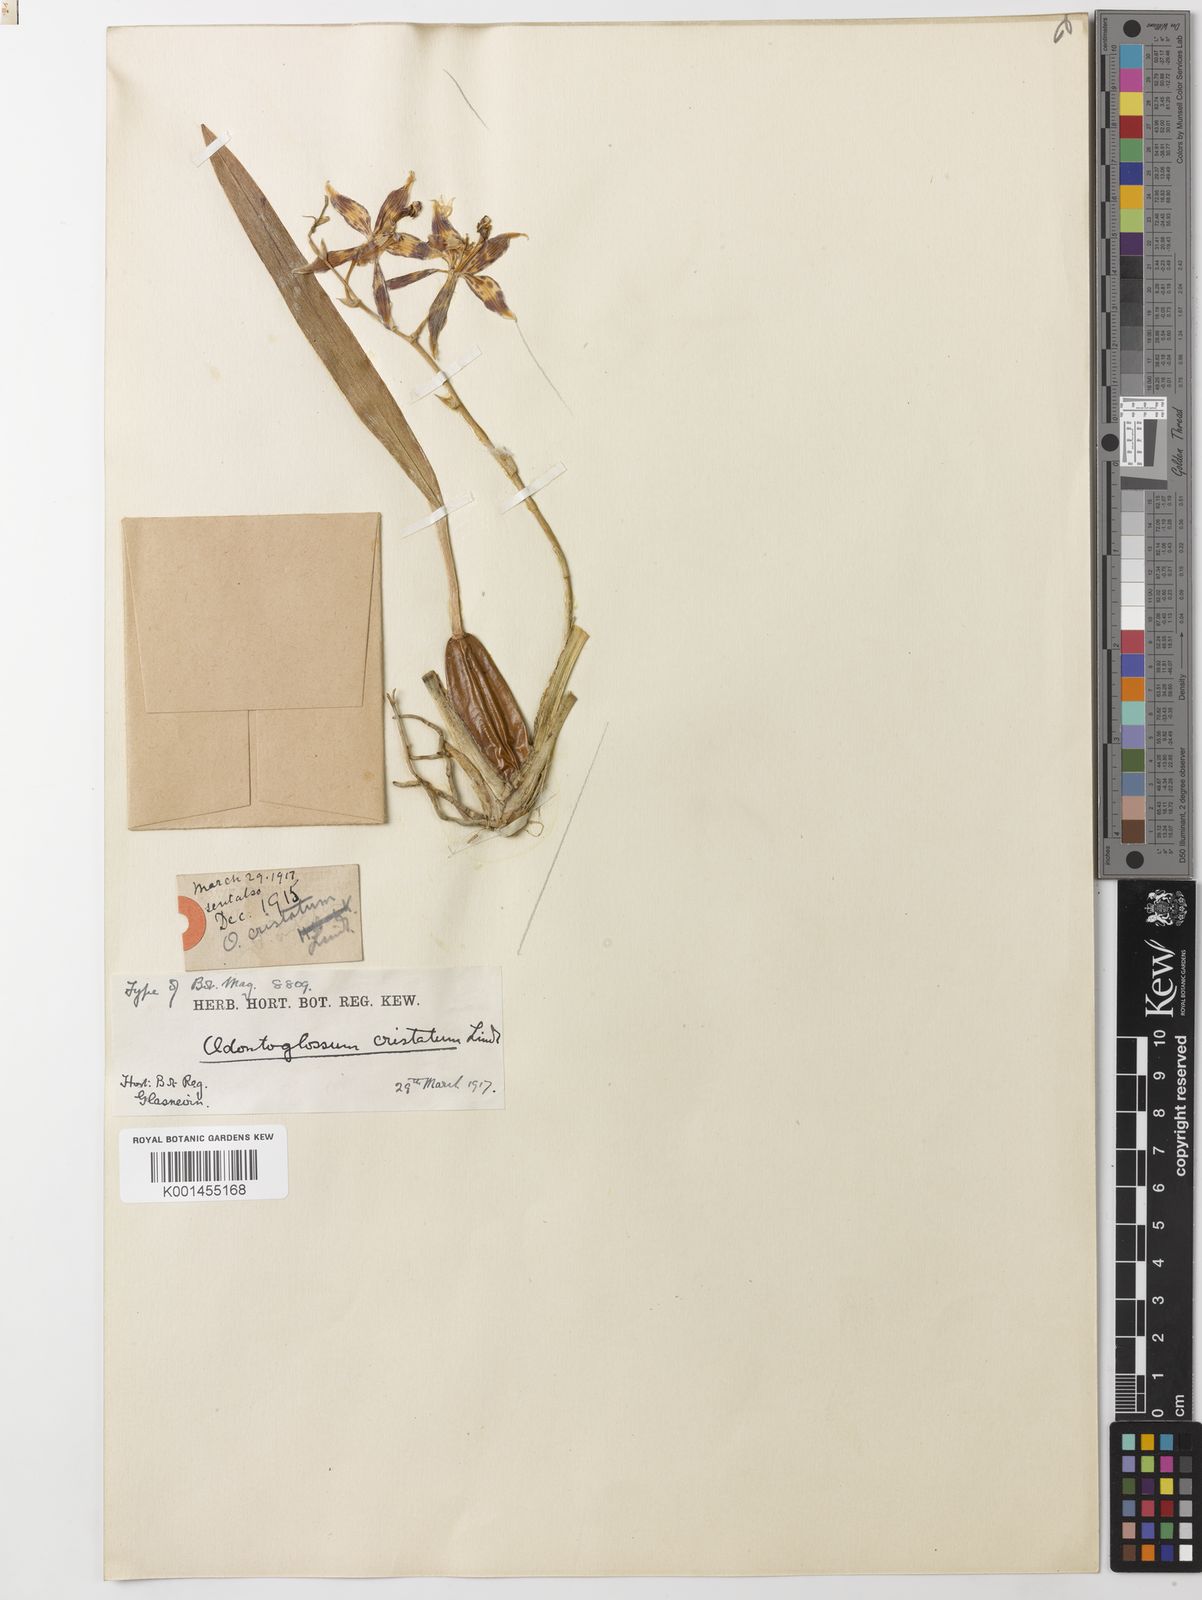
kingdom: Plantae
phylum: Tracheophyta
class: Liliopsida
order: Asparagales
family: Orchidaceae
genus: Oncidium
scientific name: Oncidium cristatellum
